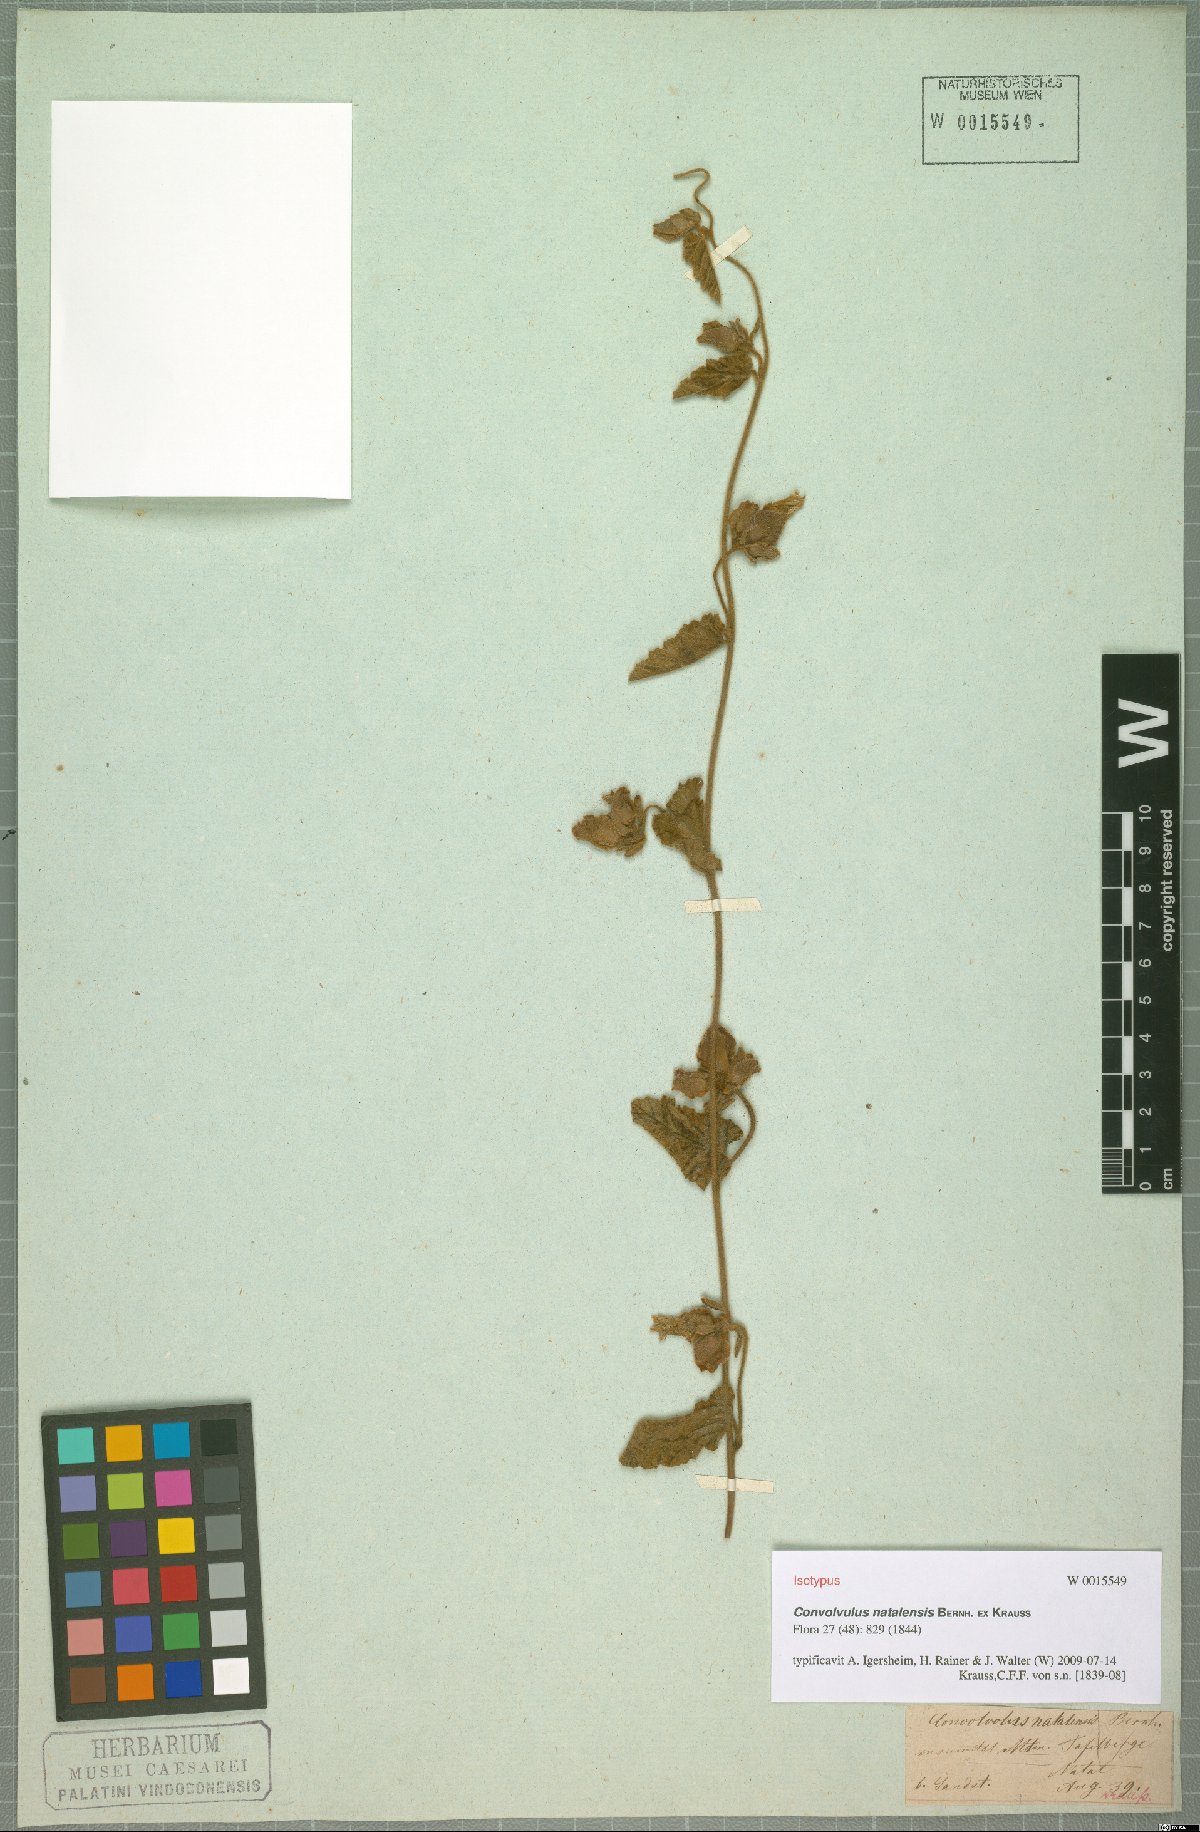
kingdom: Plantae
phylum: Tracheophyta
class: Magnoliopsida
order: Solanales
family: Convolvulaceae
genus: Convolvulus
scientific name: Convolvulus natalensis
